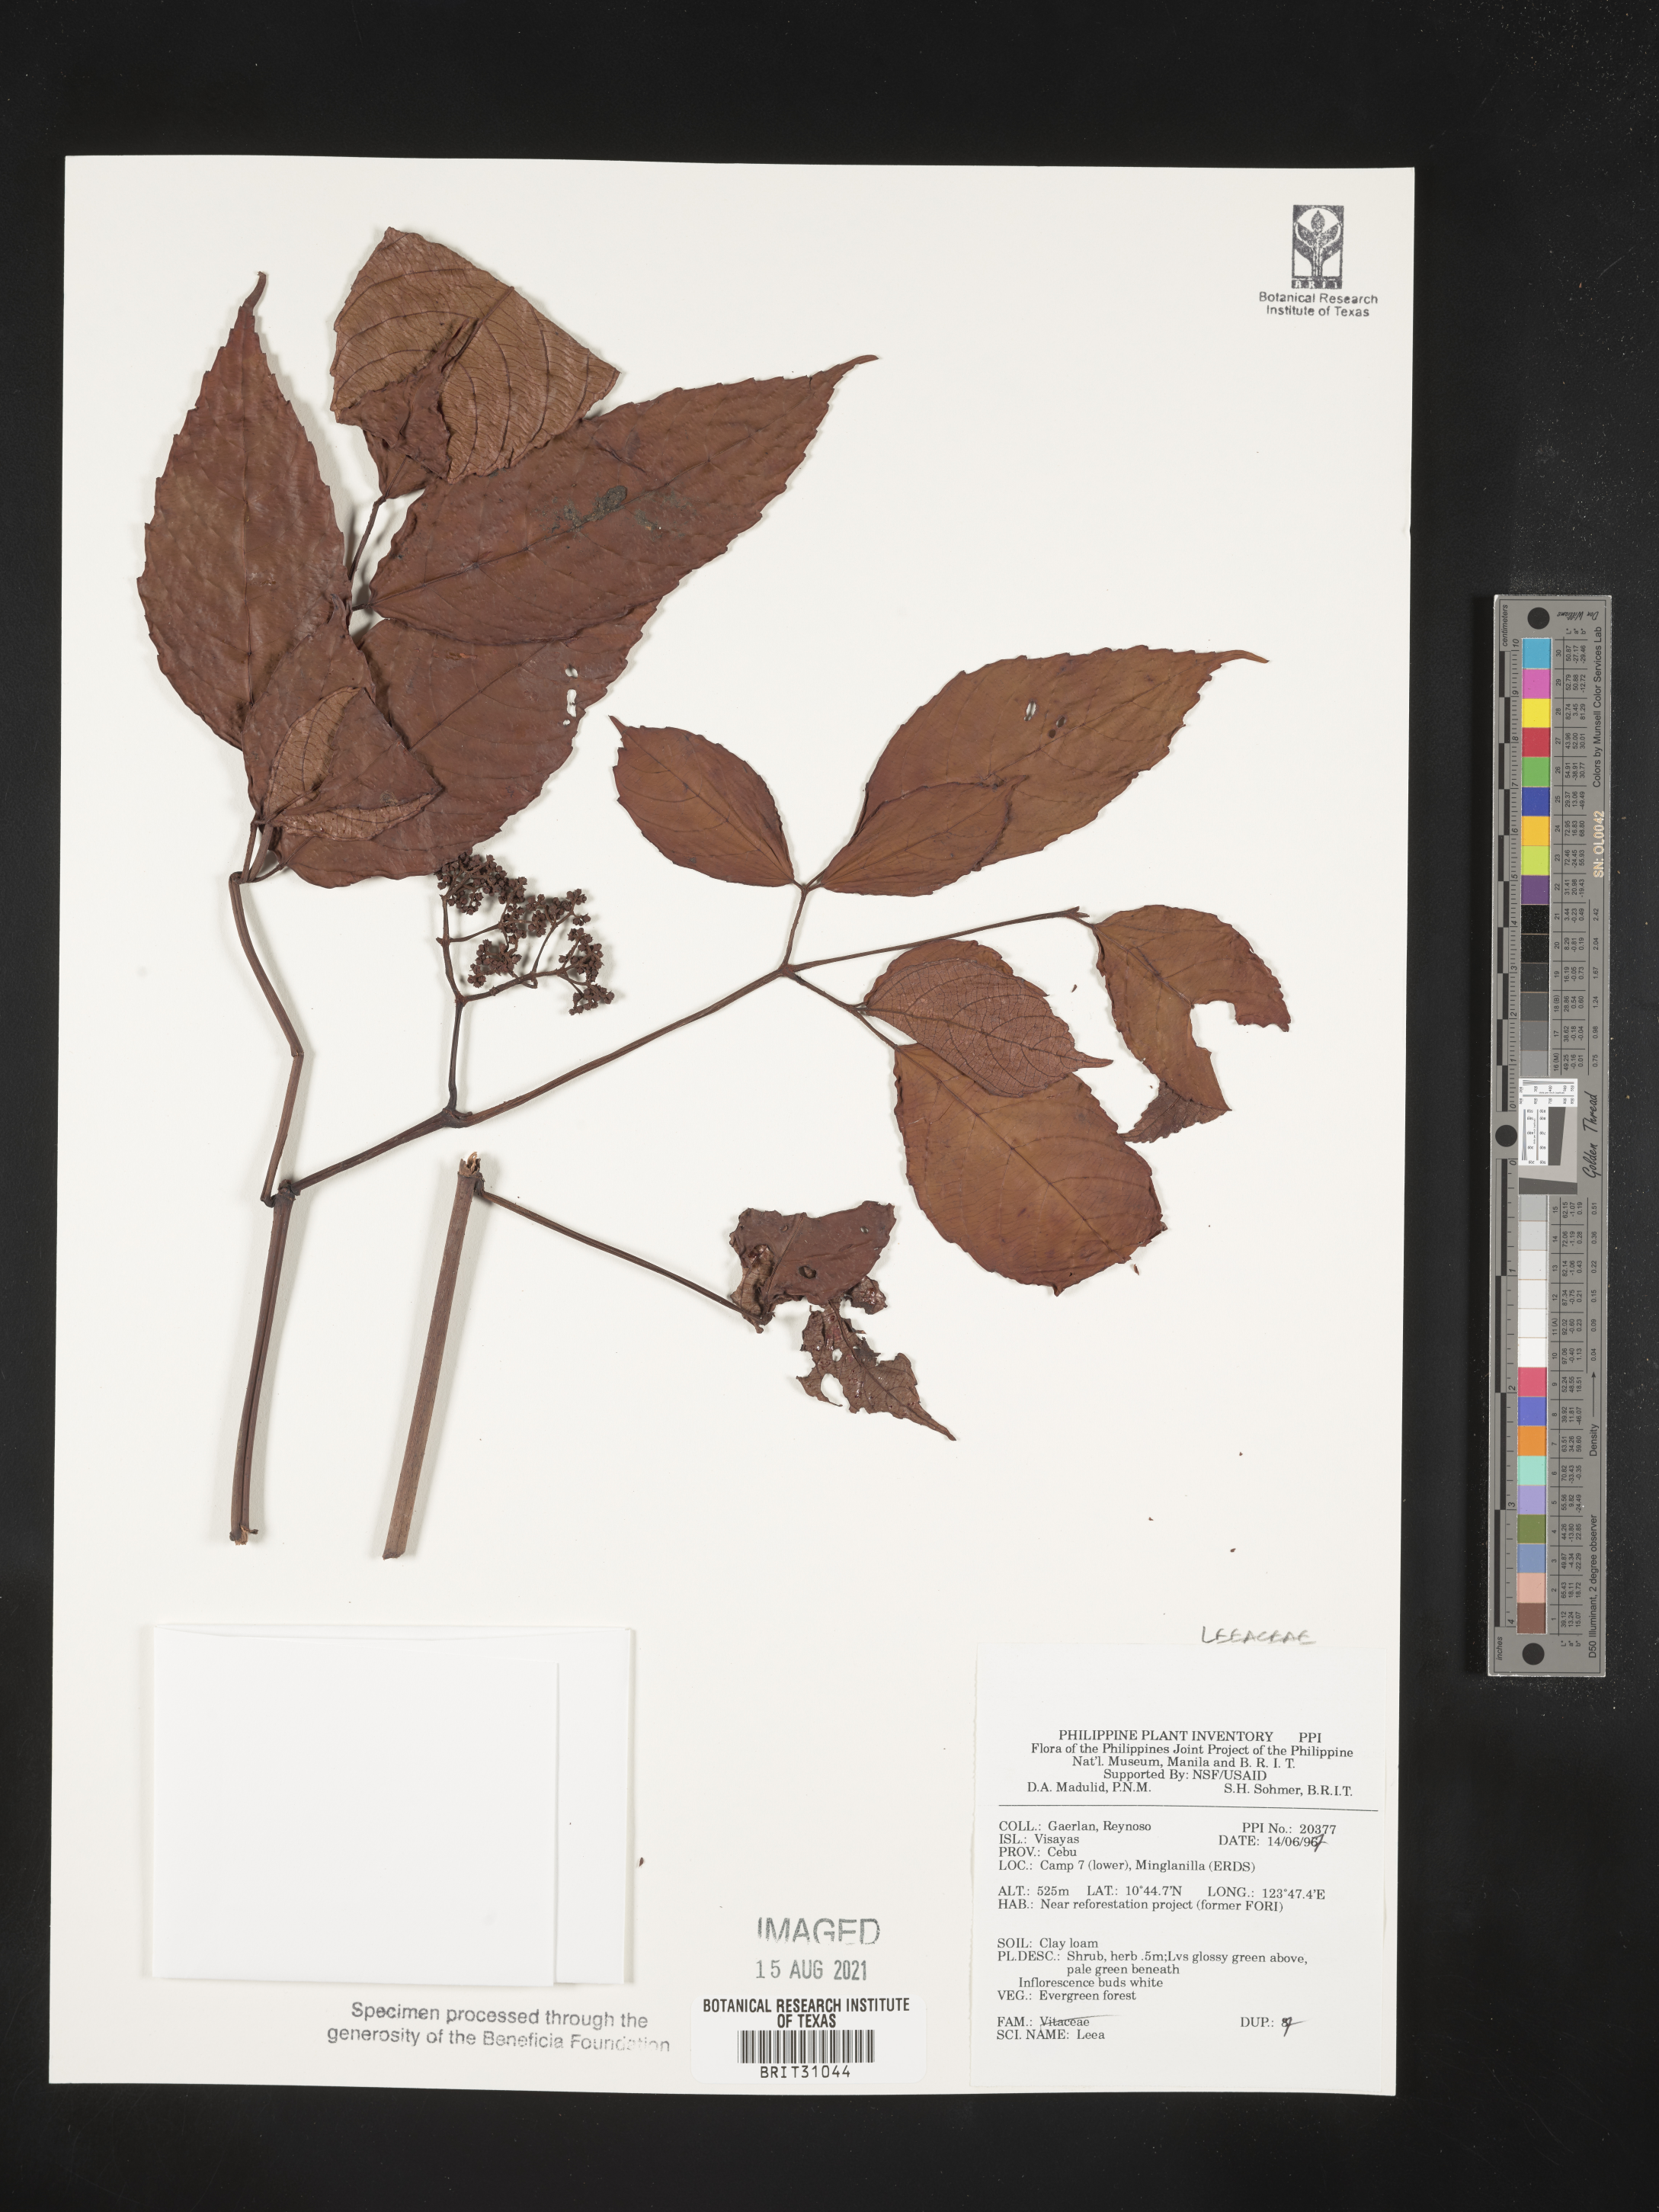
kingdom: Plantae
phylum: Tracheophyta
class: Magnoliopsida
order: Vitales
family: Vitaceae
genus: Leea
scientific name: Leea
